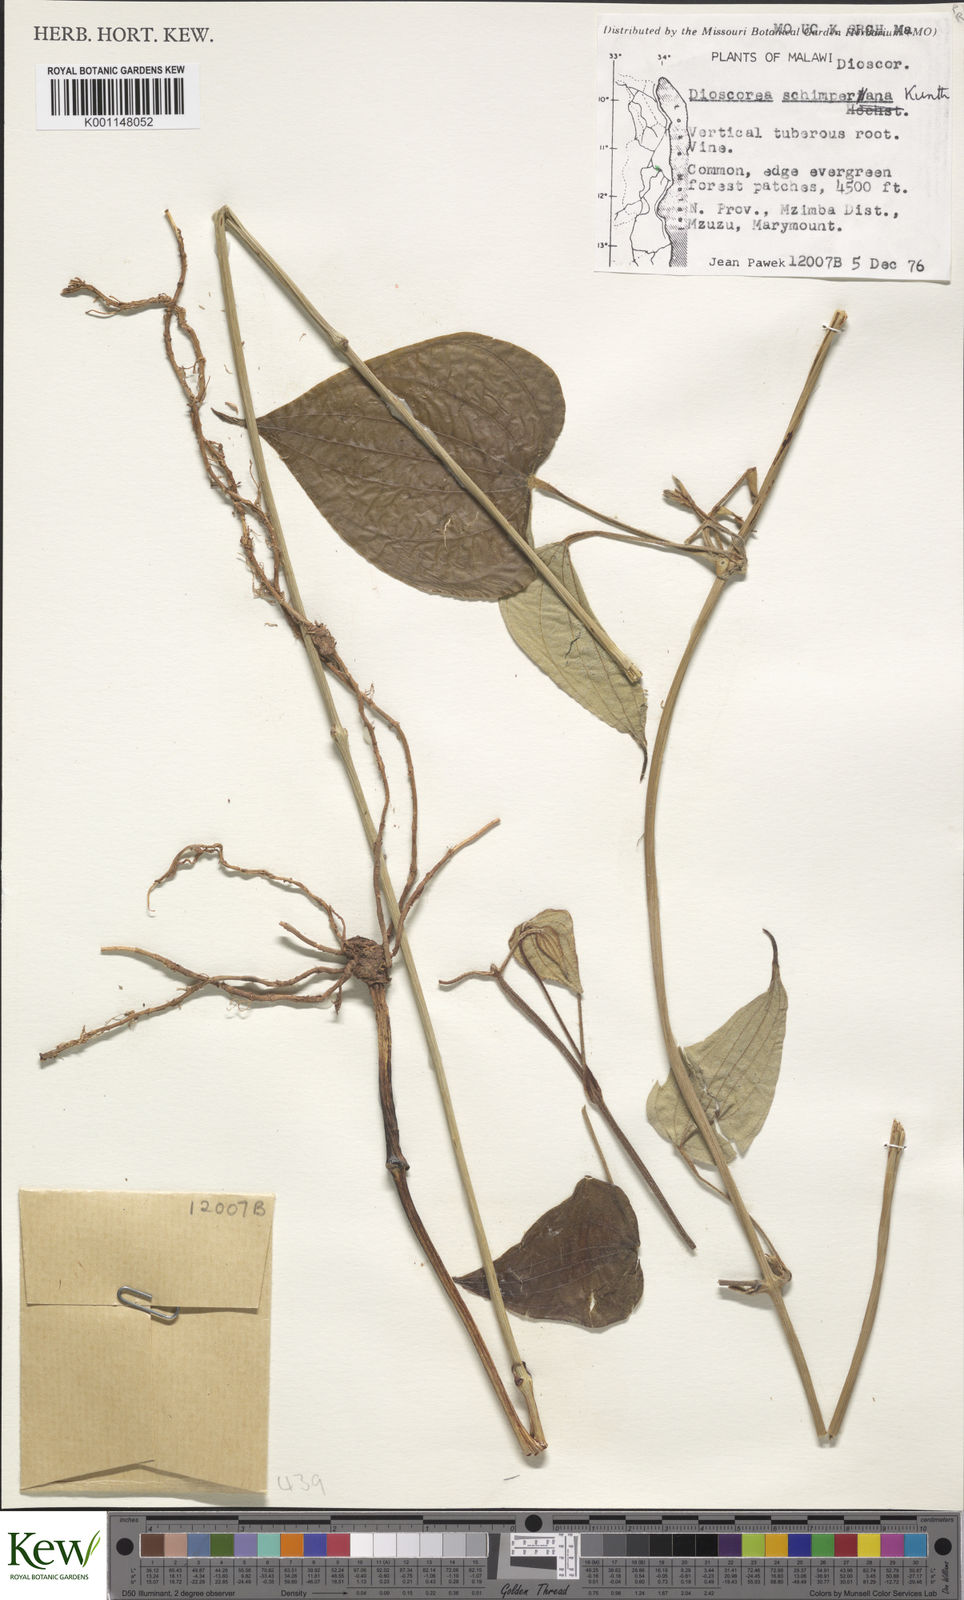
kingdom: Plantae
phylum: Tracheophyta
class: Liliopsida
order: Dioscoreales
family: Dioscoreaceae
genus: Dioscorea
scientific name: Dioscorea schimperiana
